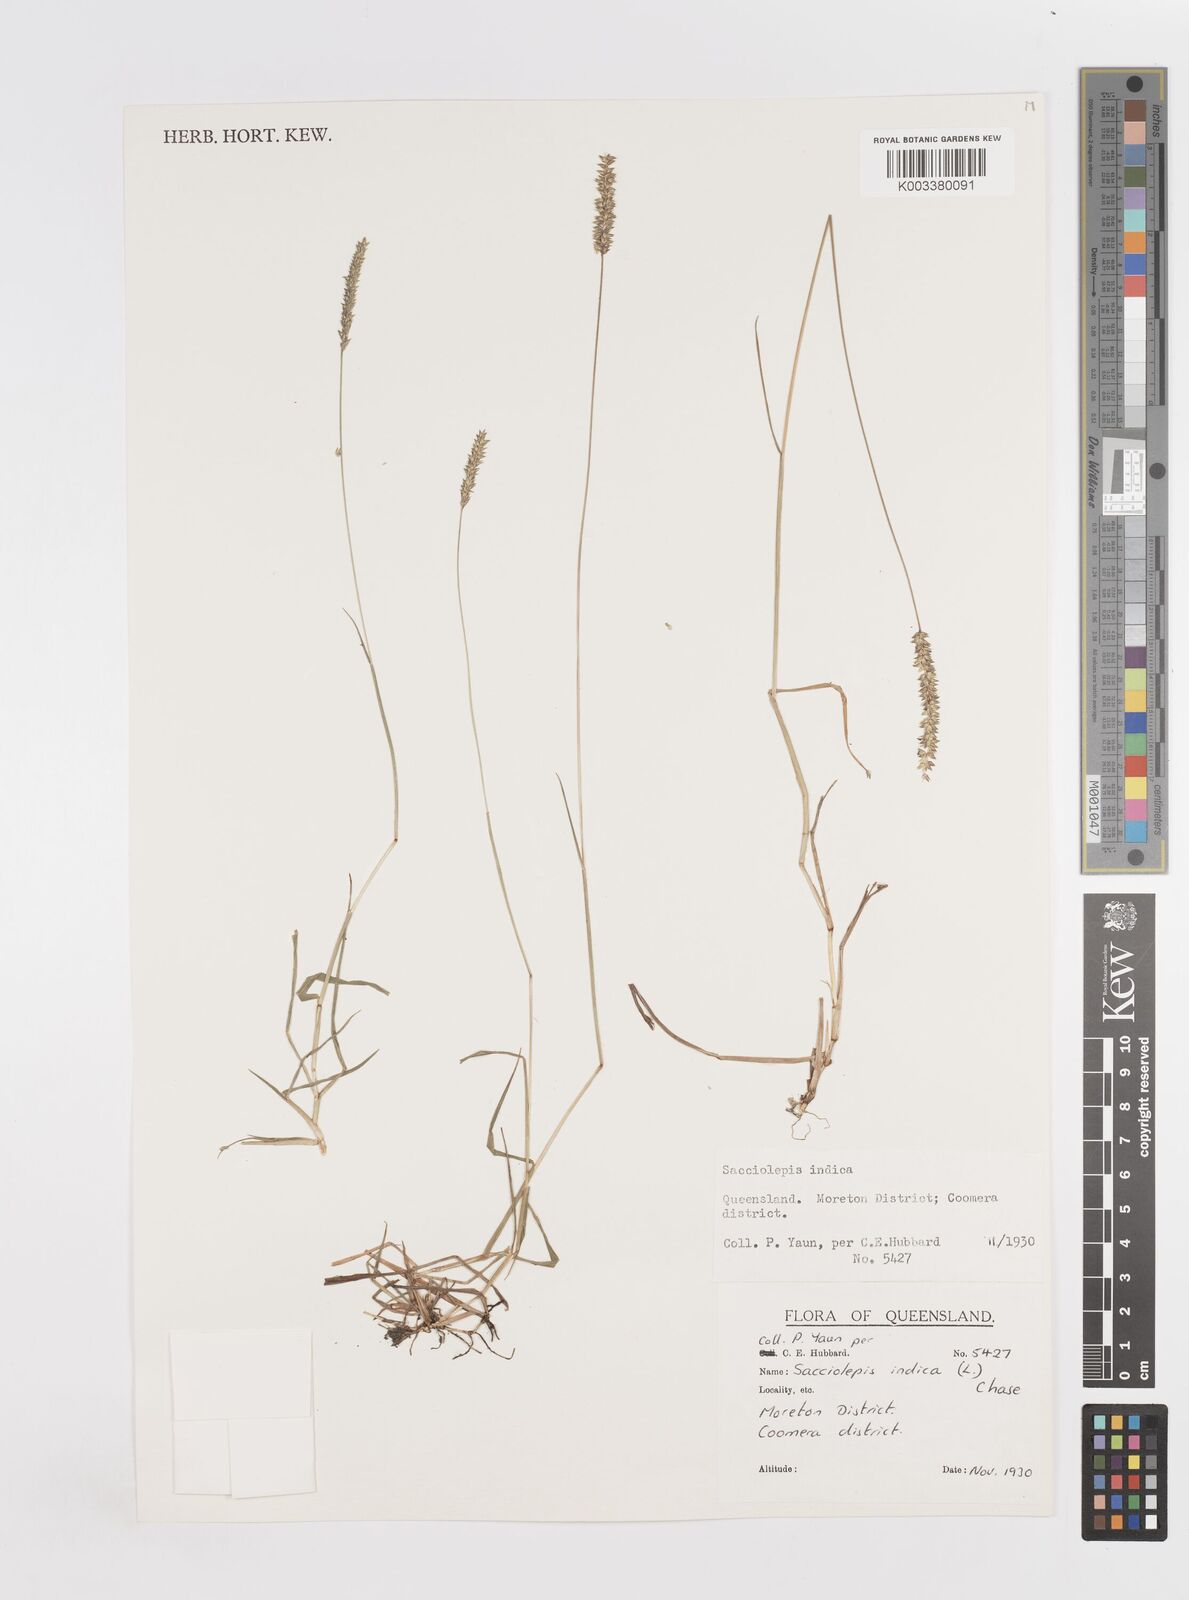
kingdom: Plantae
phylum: Tracheophyta
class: Liliopsida
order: Poales
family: Poaceae
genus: Sacciolepis
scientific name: Sacciolepis indica
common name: Glenwoodgrass
